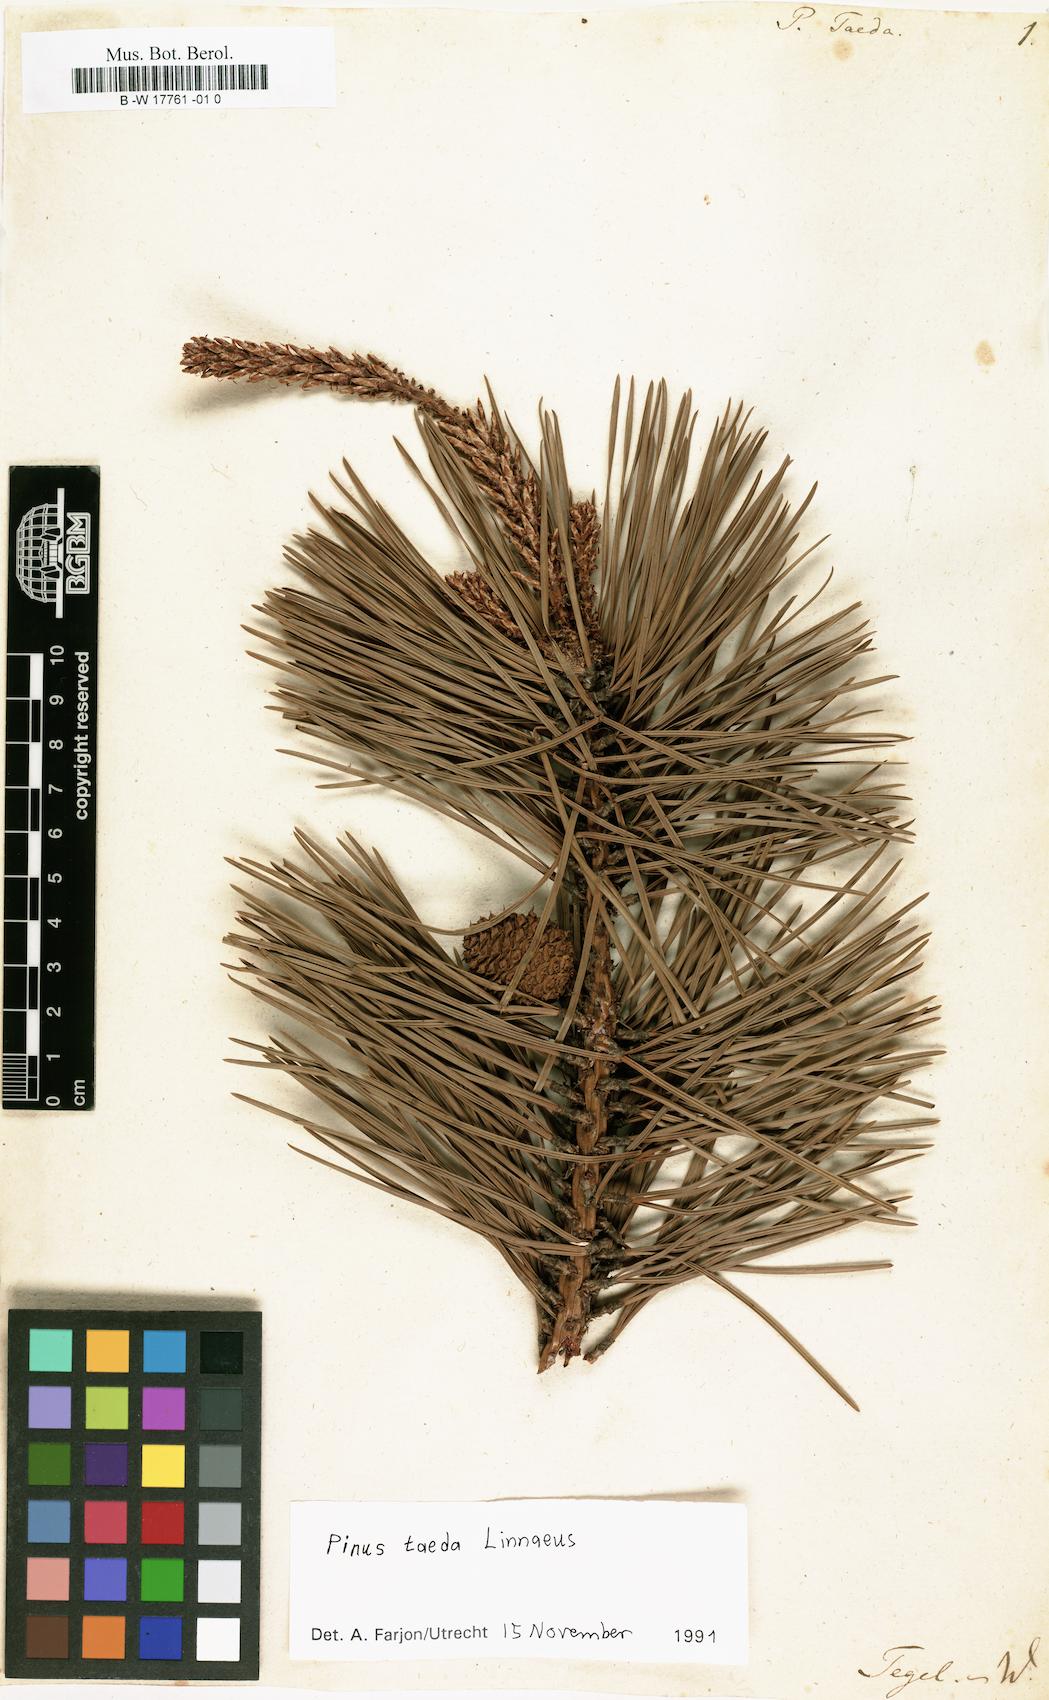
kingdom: Plantae
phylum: Tracheophyta
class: Pinopsida
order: Pinales
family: Pinaceae
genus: Pinus
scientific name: Pinus taeda
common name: Loblolly pine
